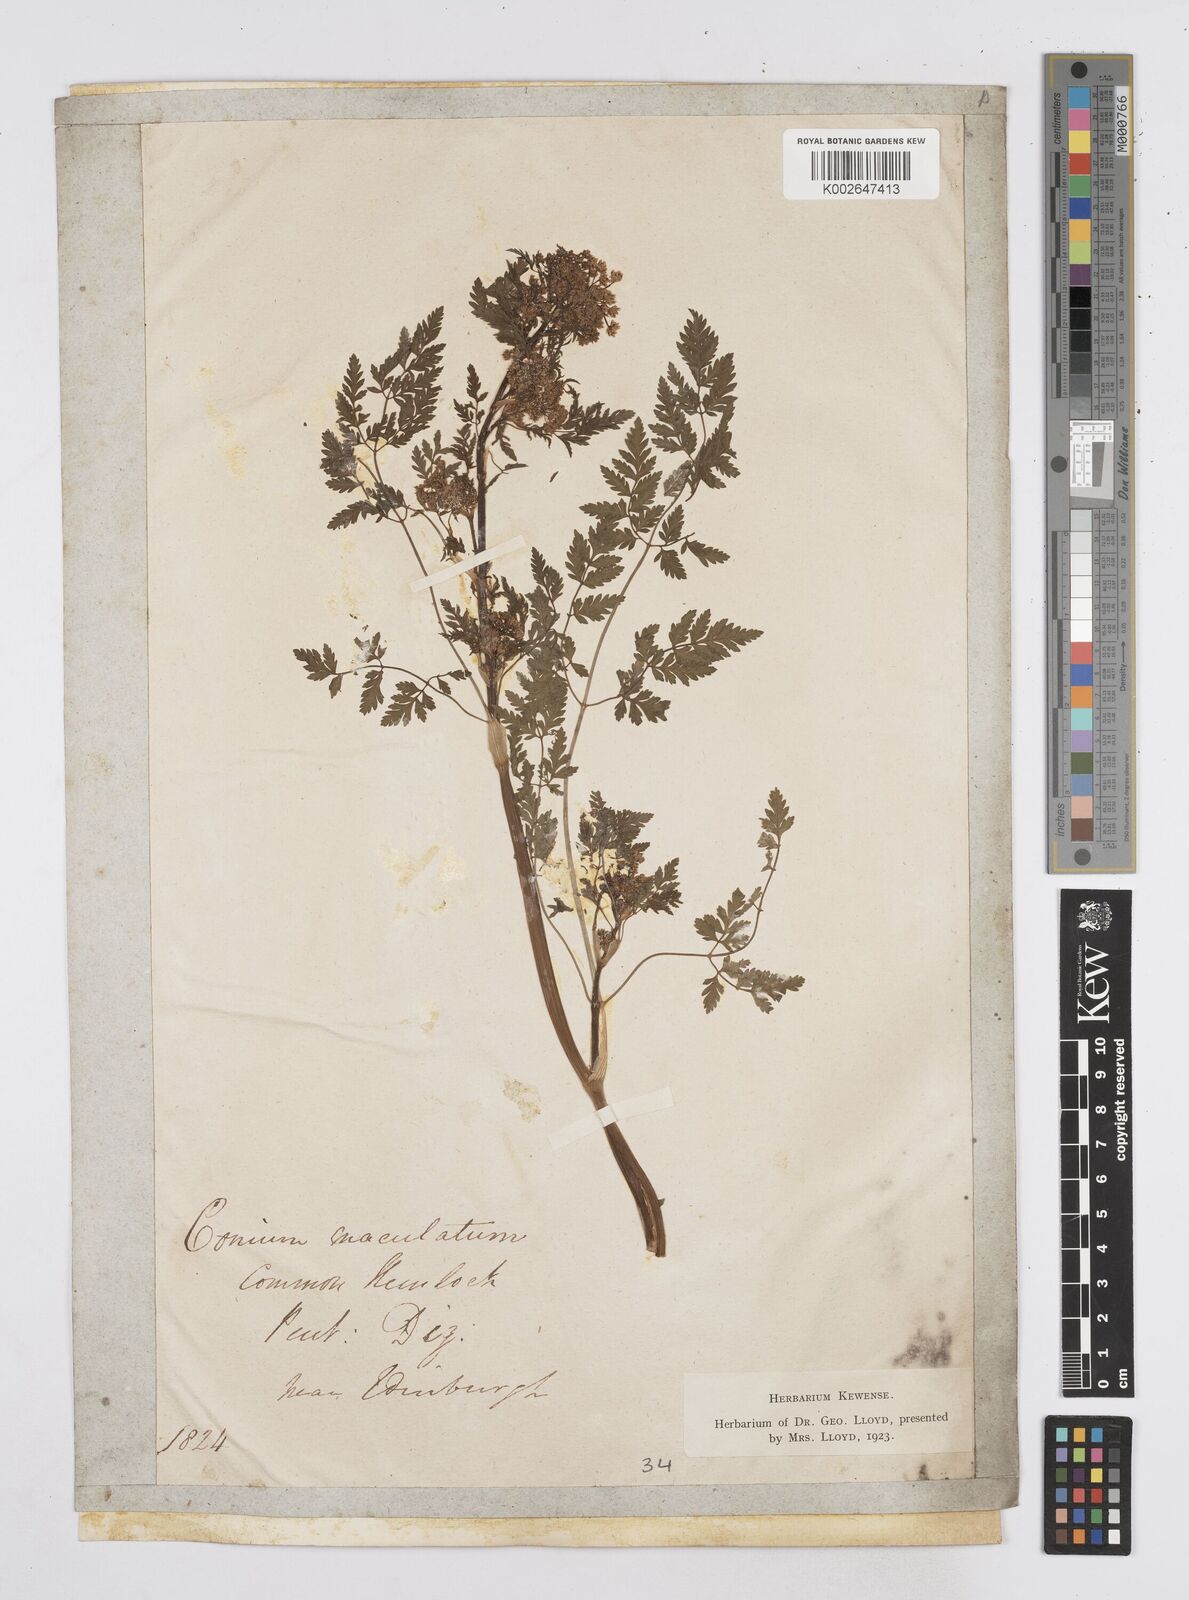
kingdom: Plantae
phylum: Tracheophyta
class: Magnoliopsida
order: Apiales
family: Apiaceae
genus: Conium
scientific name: Conium maculatum
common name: Hemlock
